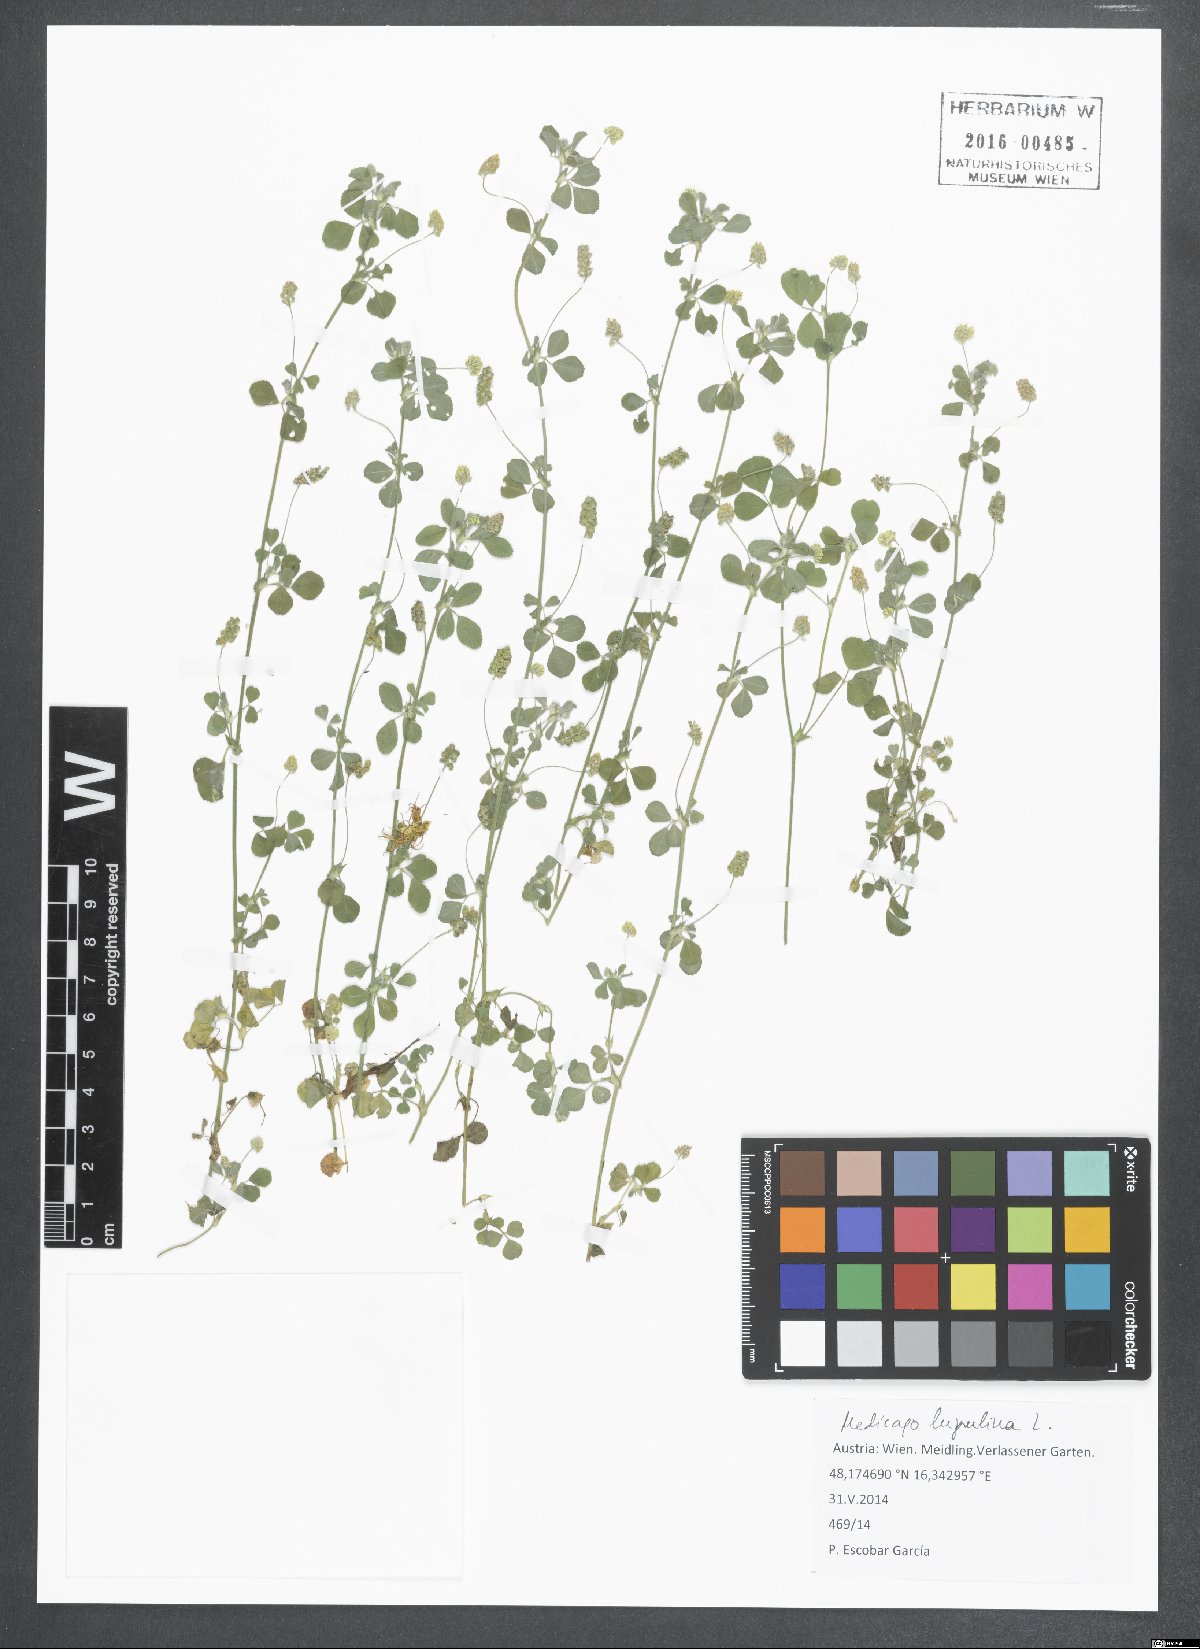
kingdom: Plantae
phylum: Tracheophyta
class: Magnoliopsida
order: Fabales
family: Fabaceae
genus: Medicago
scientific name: Medicago lupulina
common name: Black medick
